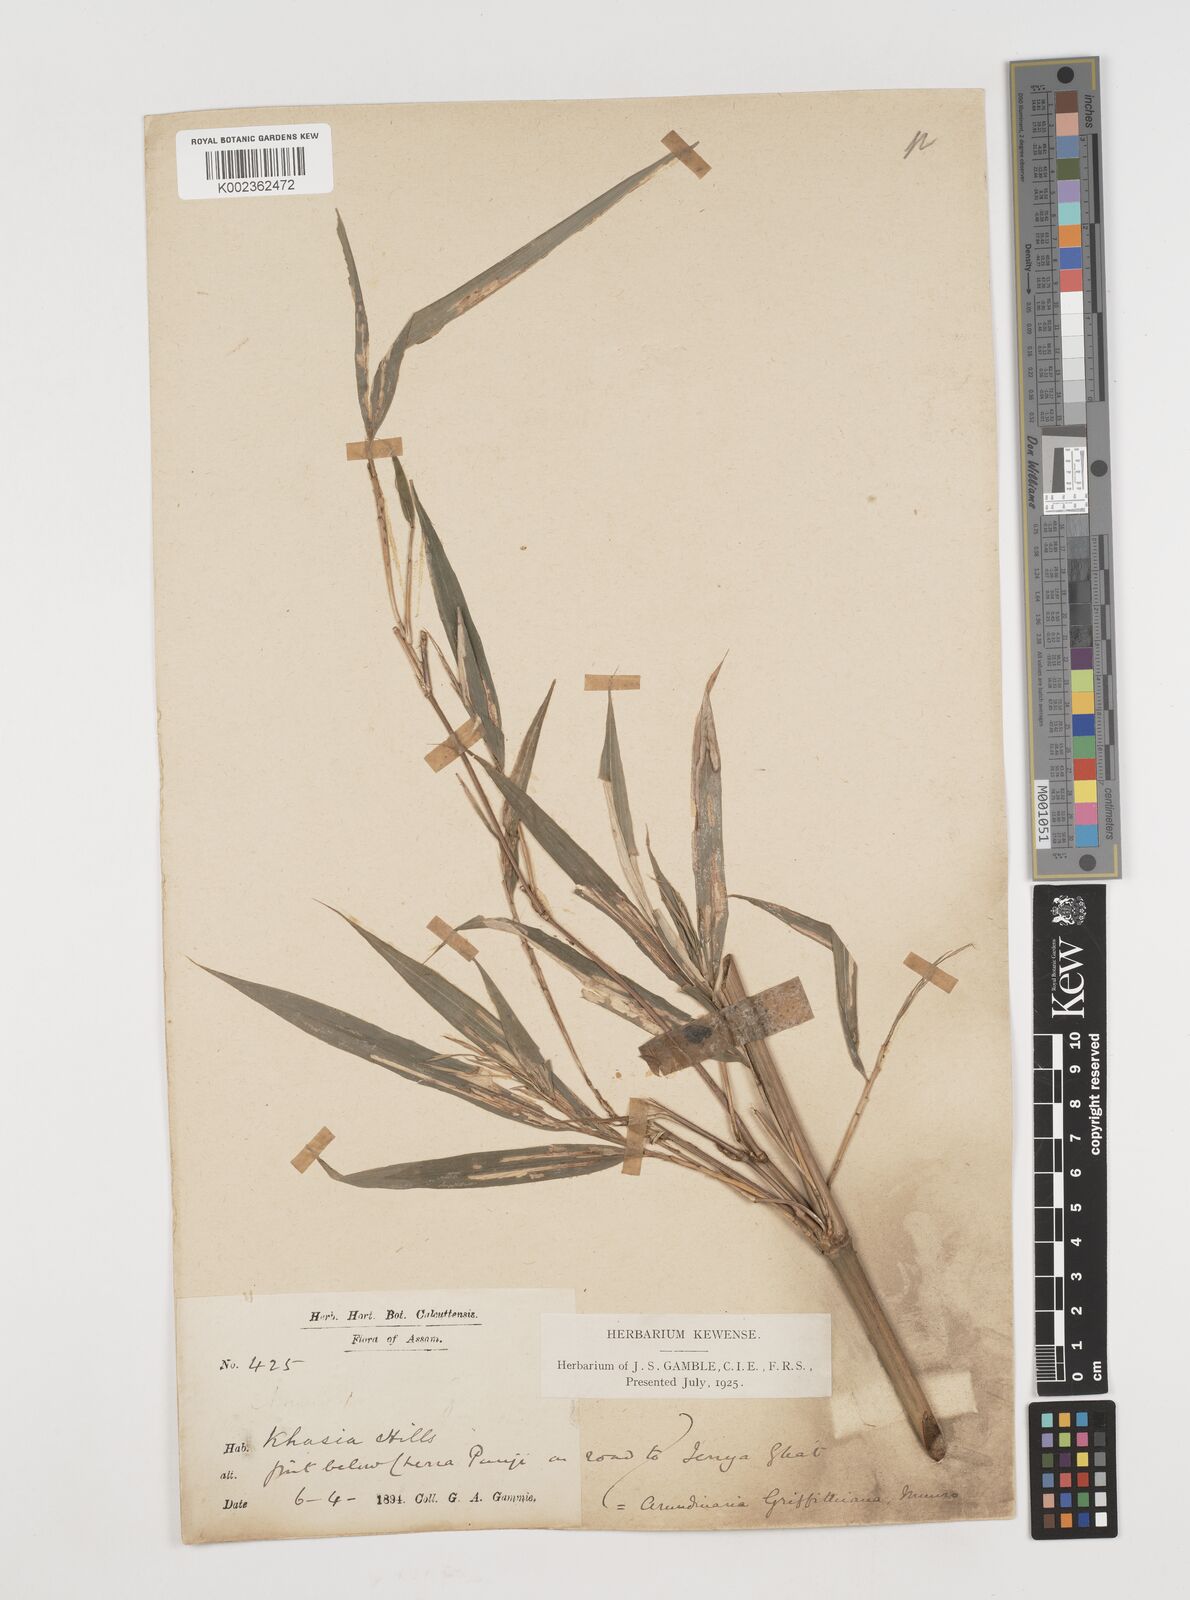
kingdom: Plantae
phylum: Tracheophyta
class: Liliopsida
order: Poales
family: Poaceae
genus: Chimonocalamus
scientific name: Chimonocalamus griffithianus
